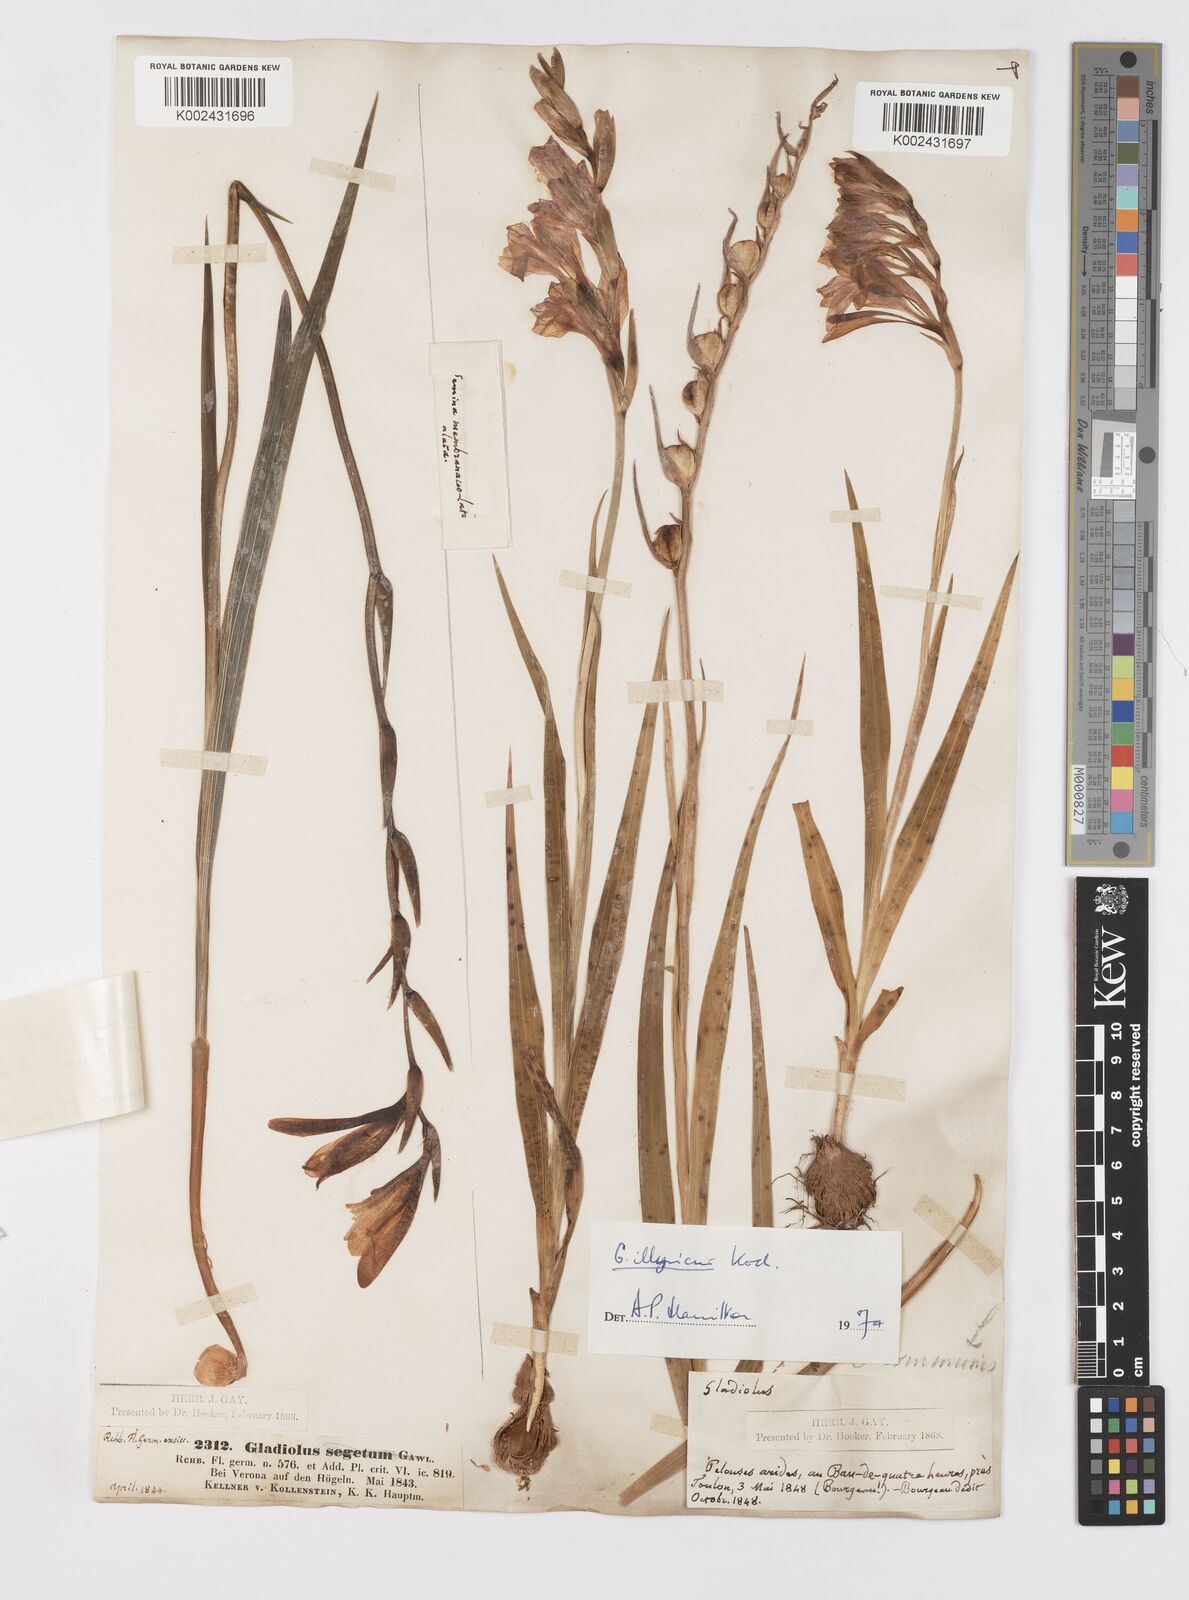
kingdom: Plantae
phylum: Tracheophyta
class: Liliopsida
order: Asparagales
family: Iridaceae
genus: Gladiolus
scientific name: Gladiolus illyricus
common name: Wild gladiolus
